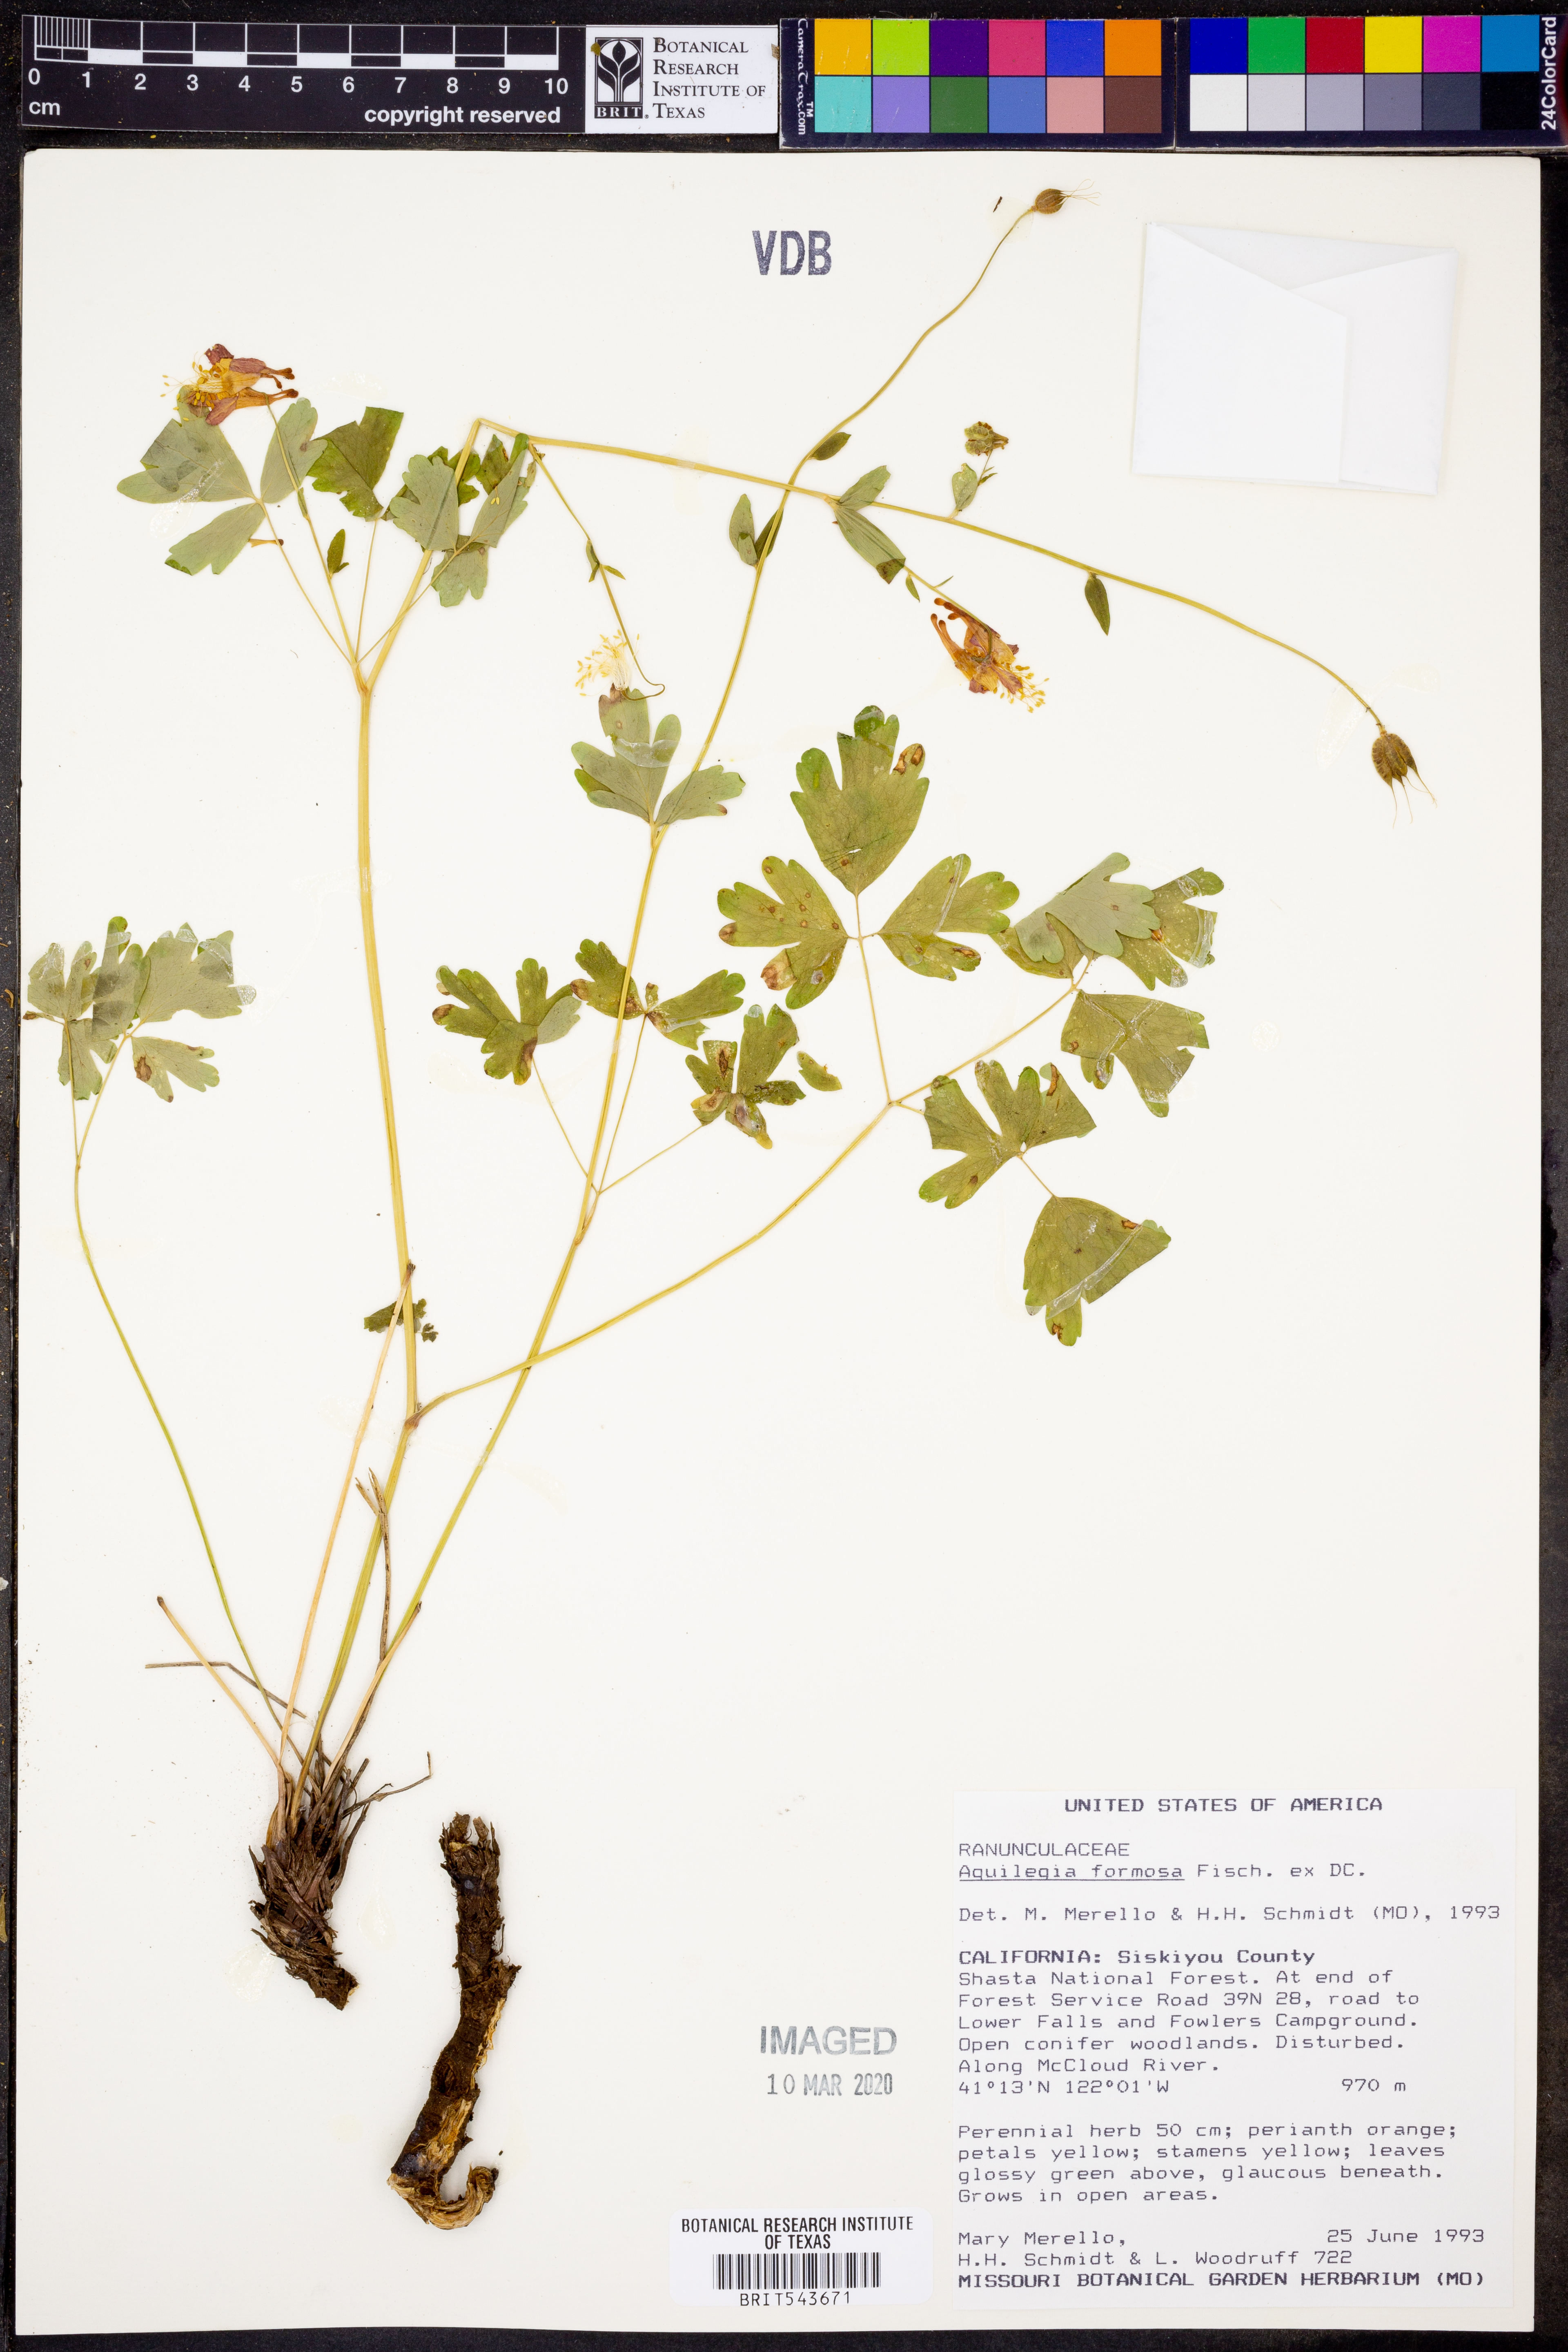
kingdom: Plantae
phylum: Tracheophyta
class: Magnoliopsida
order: Ranunculales
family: Ranunculaceae
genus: Aquilegia
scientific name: Aquilegia formosa
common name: Sitka columbine
